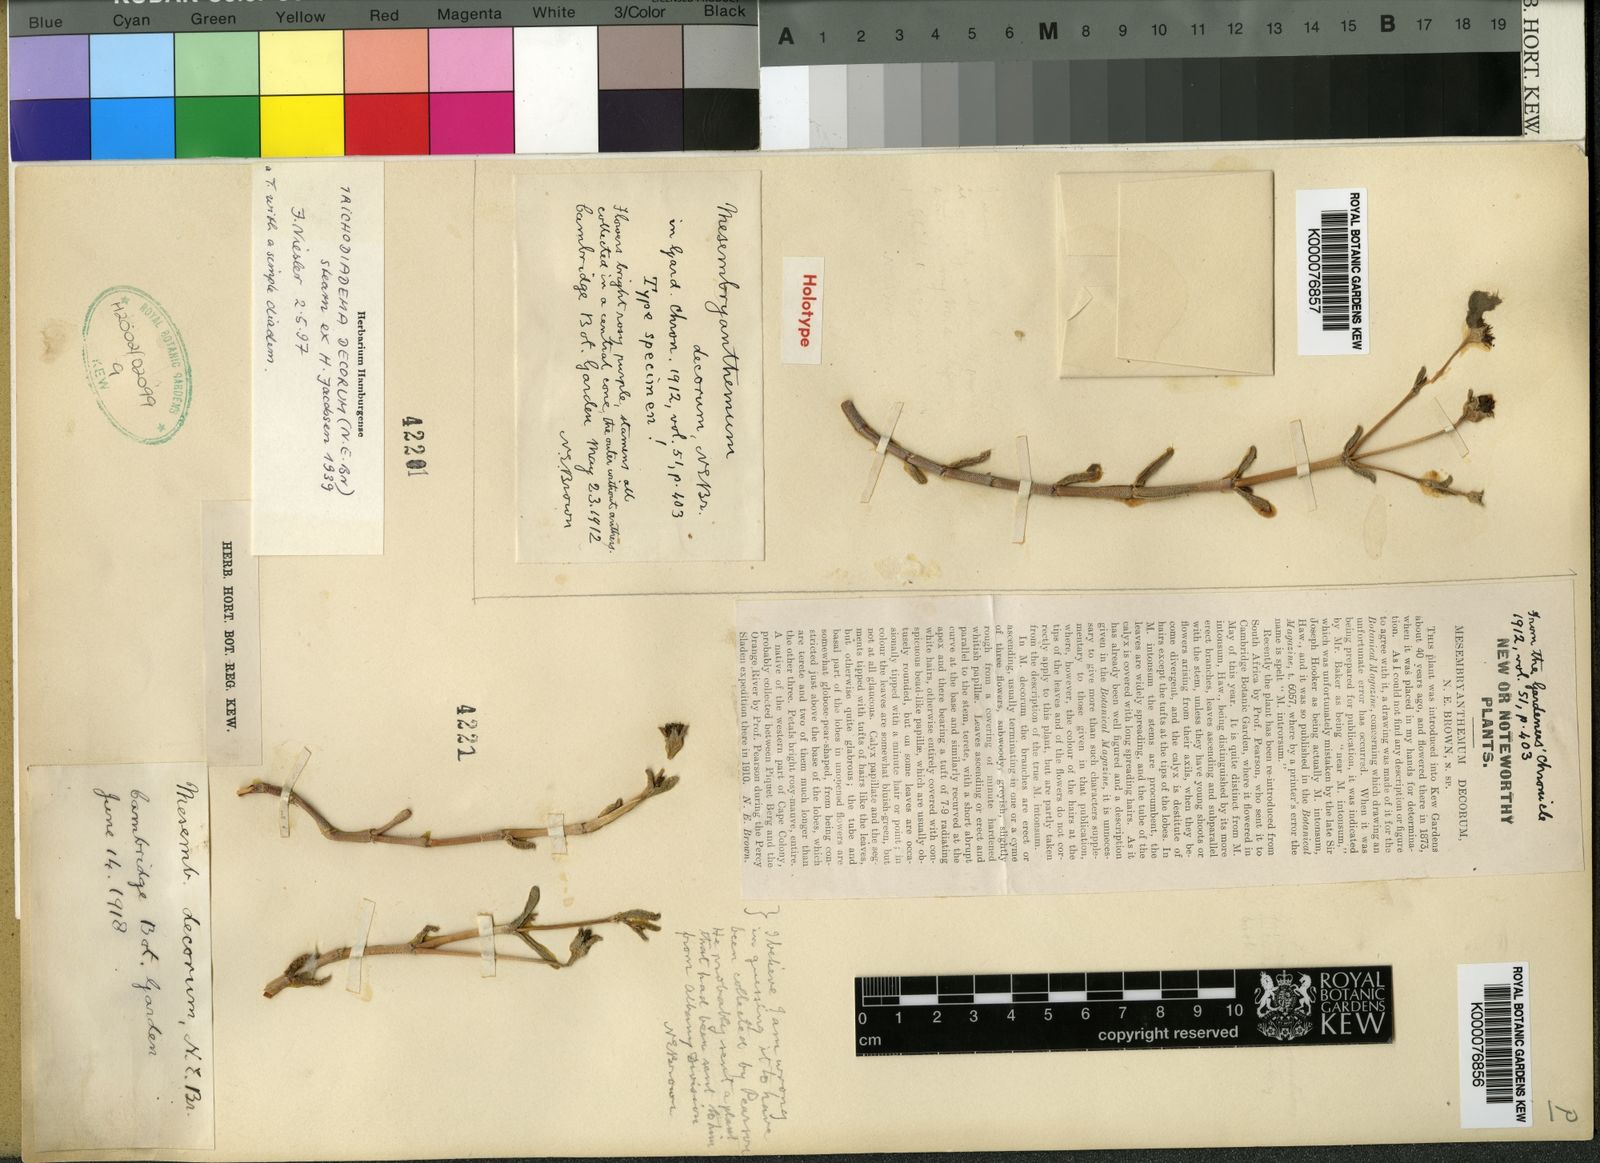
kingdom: Plantae
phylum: Tracheophyta
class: Magnoliopsida
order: Caryophyllales
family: Aizoaceae
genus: Trichodiadema
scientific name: Trichodiadema
